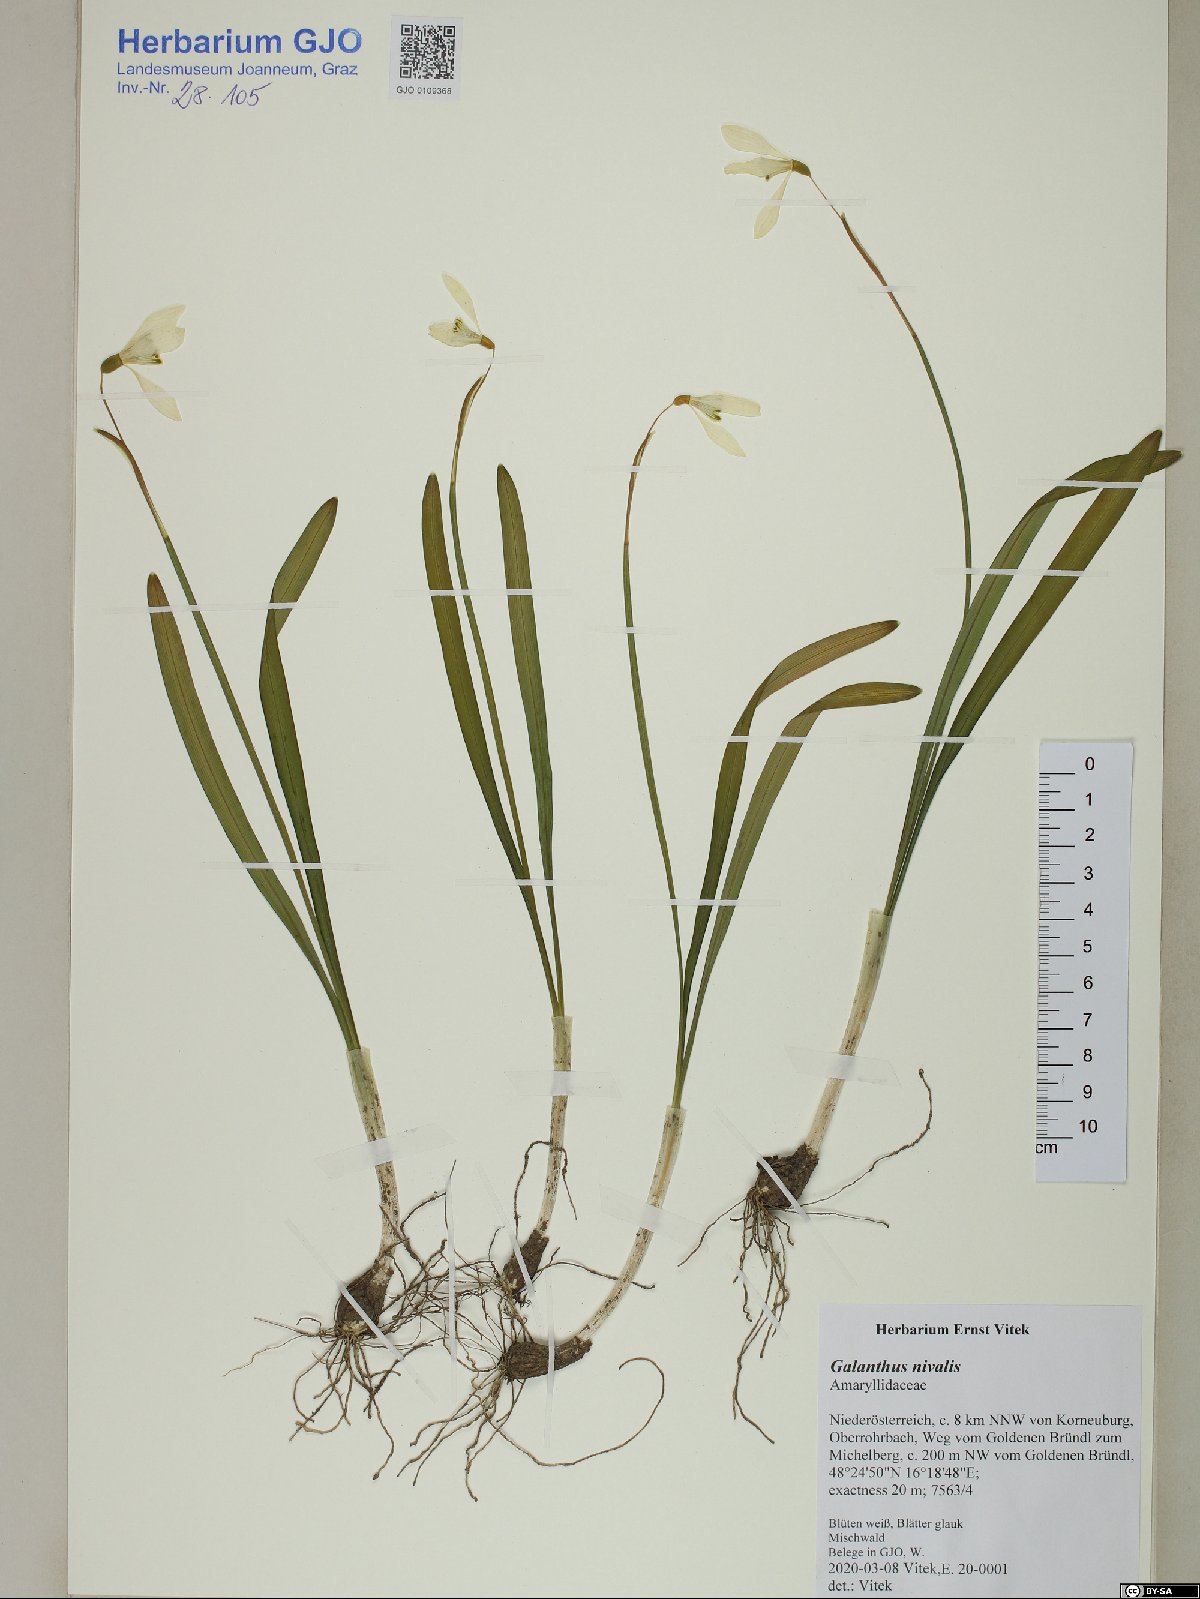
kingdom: Plantae
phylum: Tracheophyta
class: Liliopsida
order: Asparagales
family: Amaryllidaceae
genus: Galanthus
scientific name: Galanthus nivalis
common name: Snowdrop
